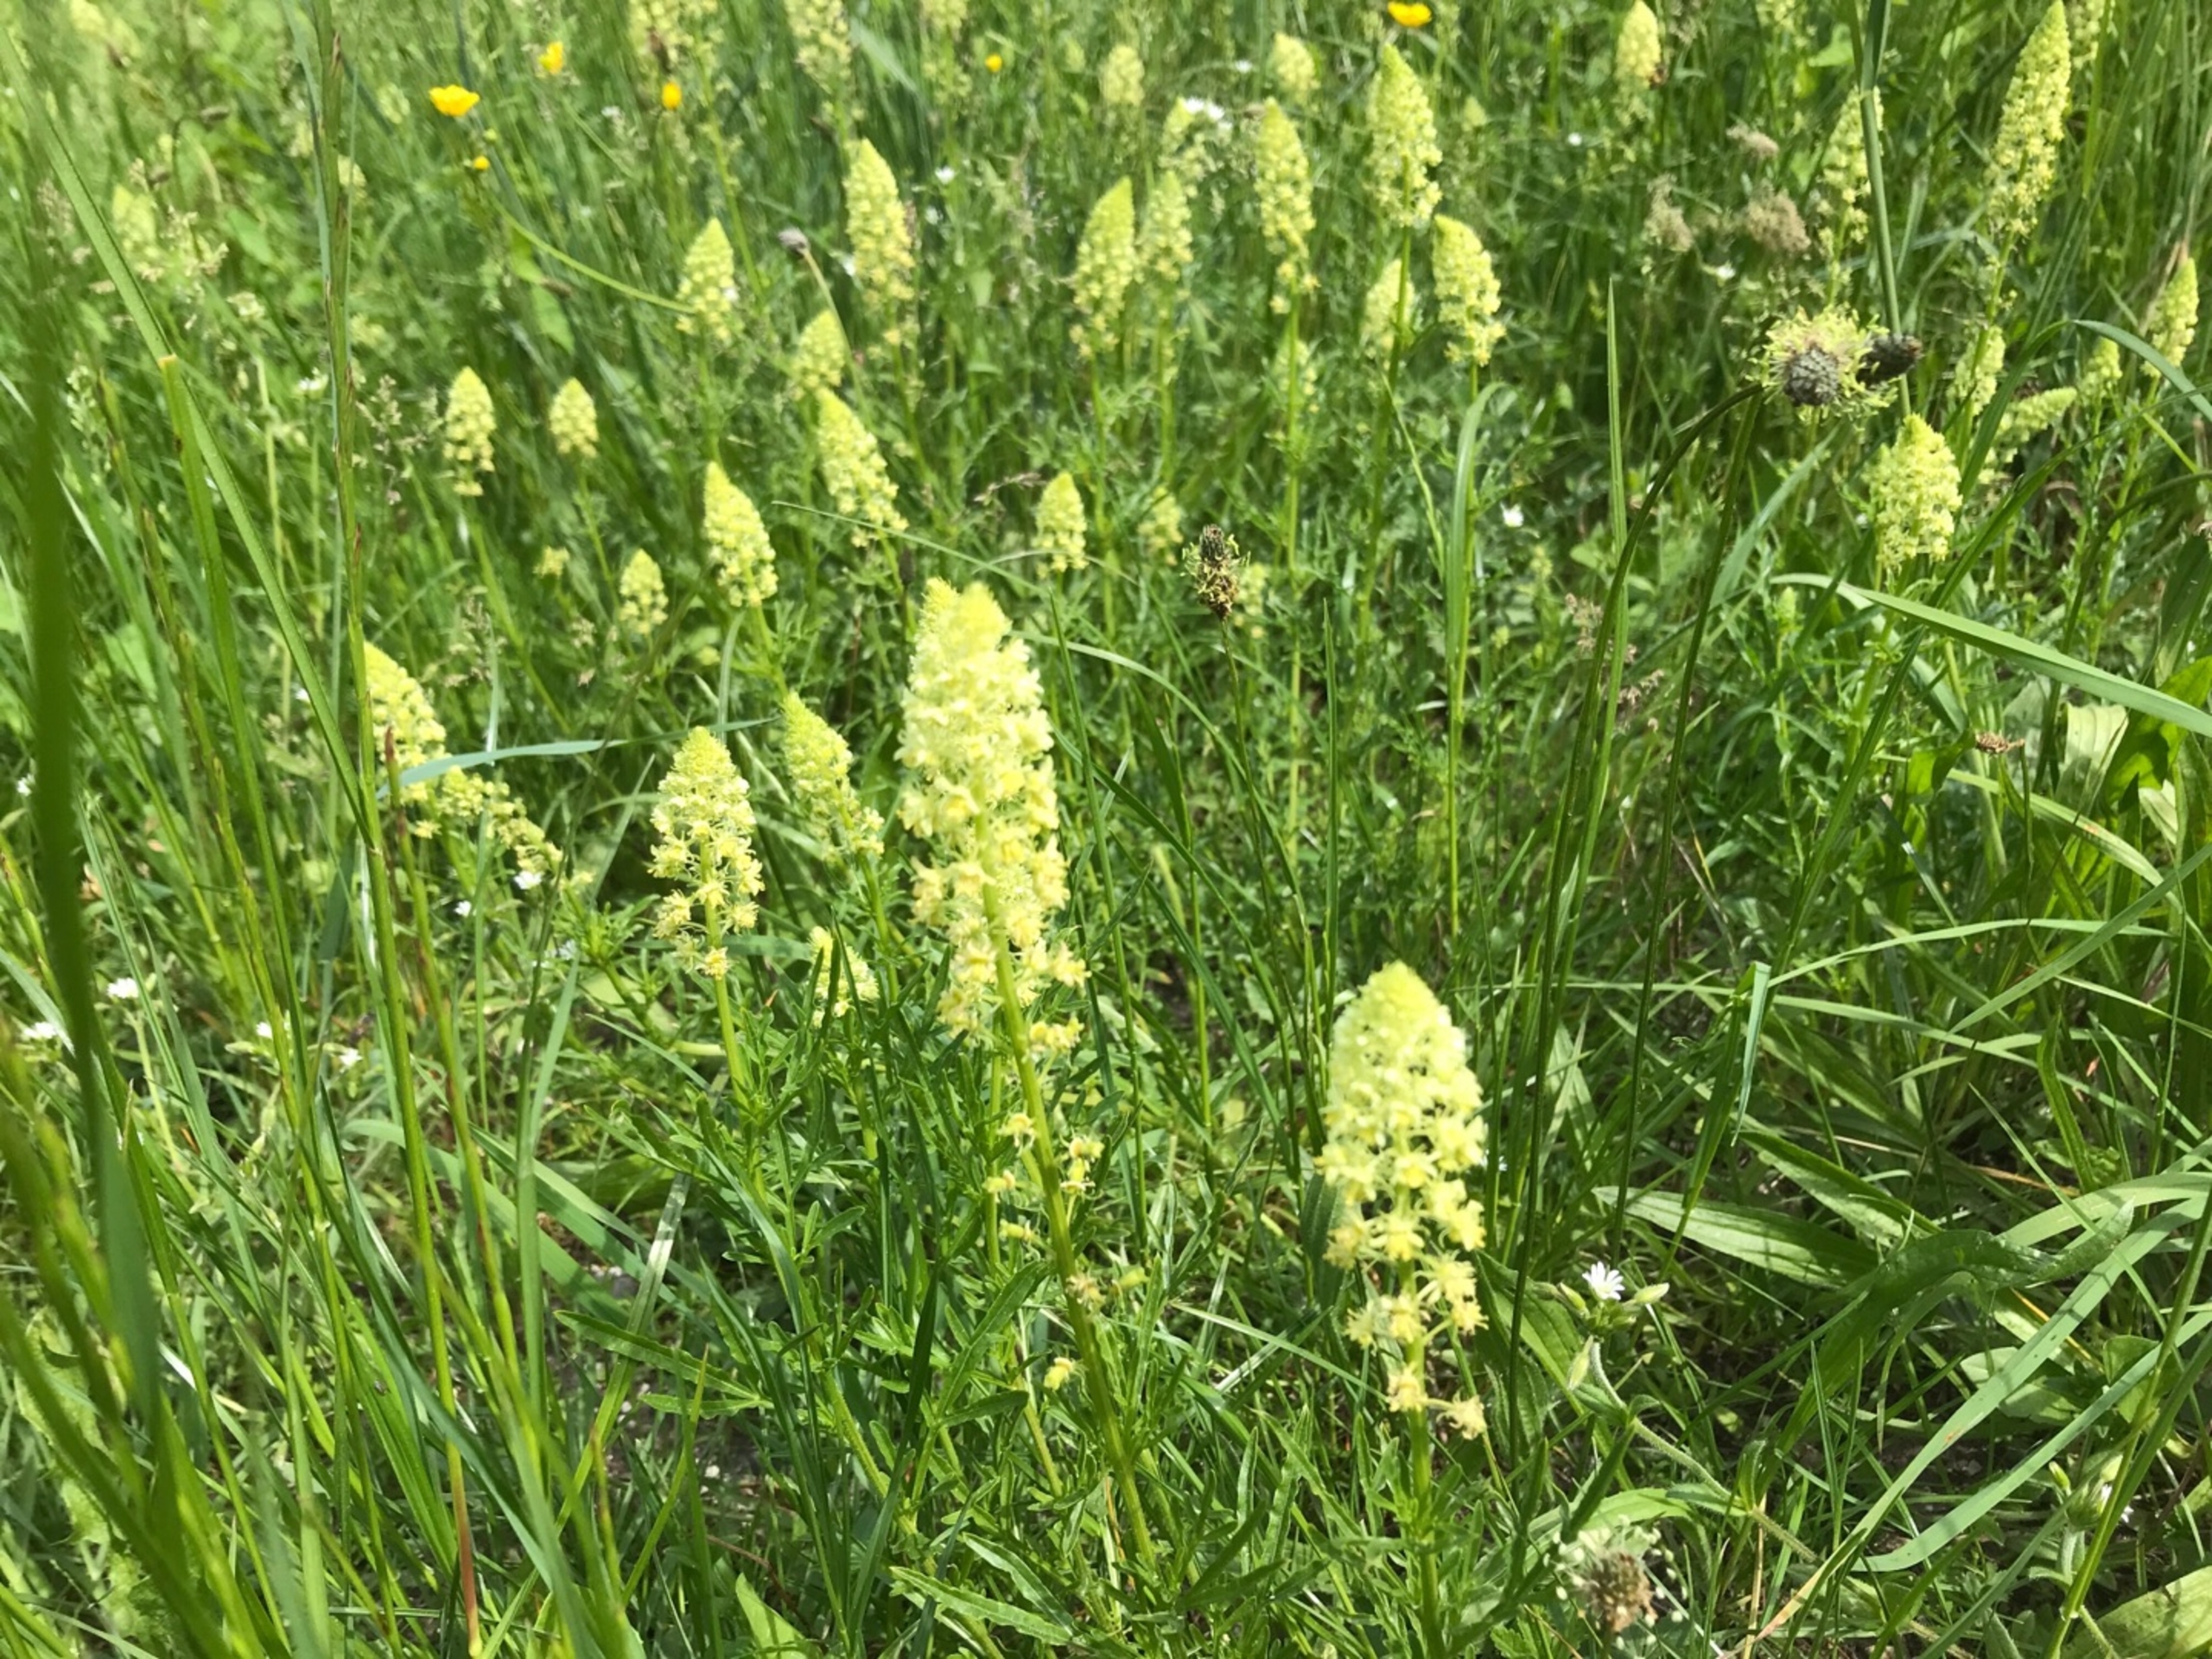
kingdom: Plantae
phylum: Tracheophyta
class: Magnoliopsida
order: Brassicales
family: Resedaceae
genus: Reseda
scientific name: Reseda lutea
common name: Gul reseda
